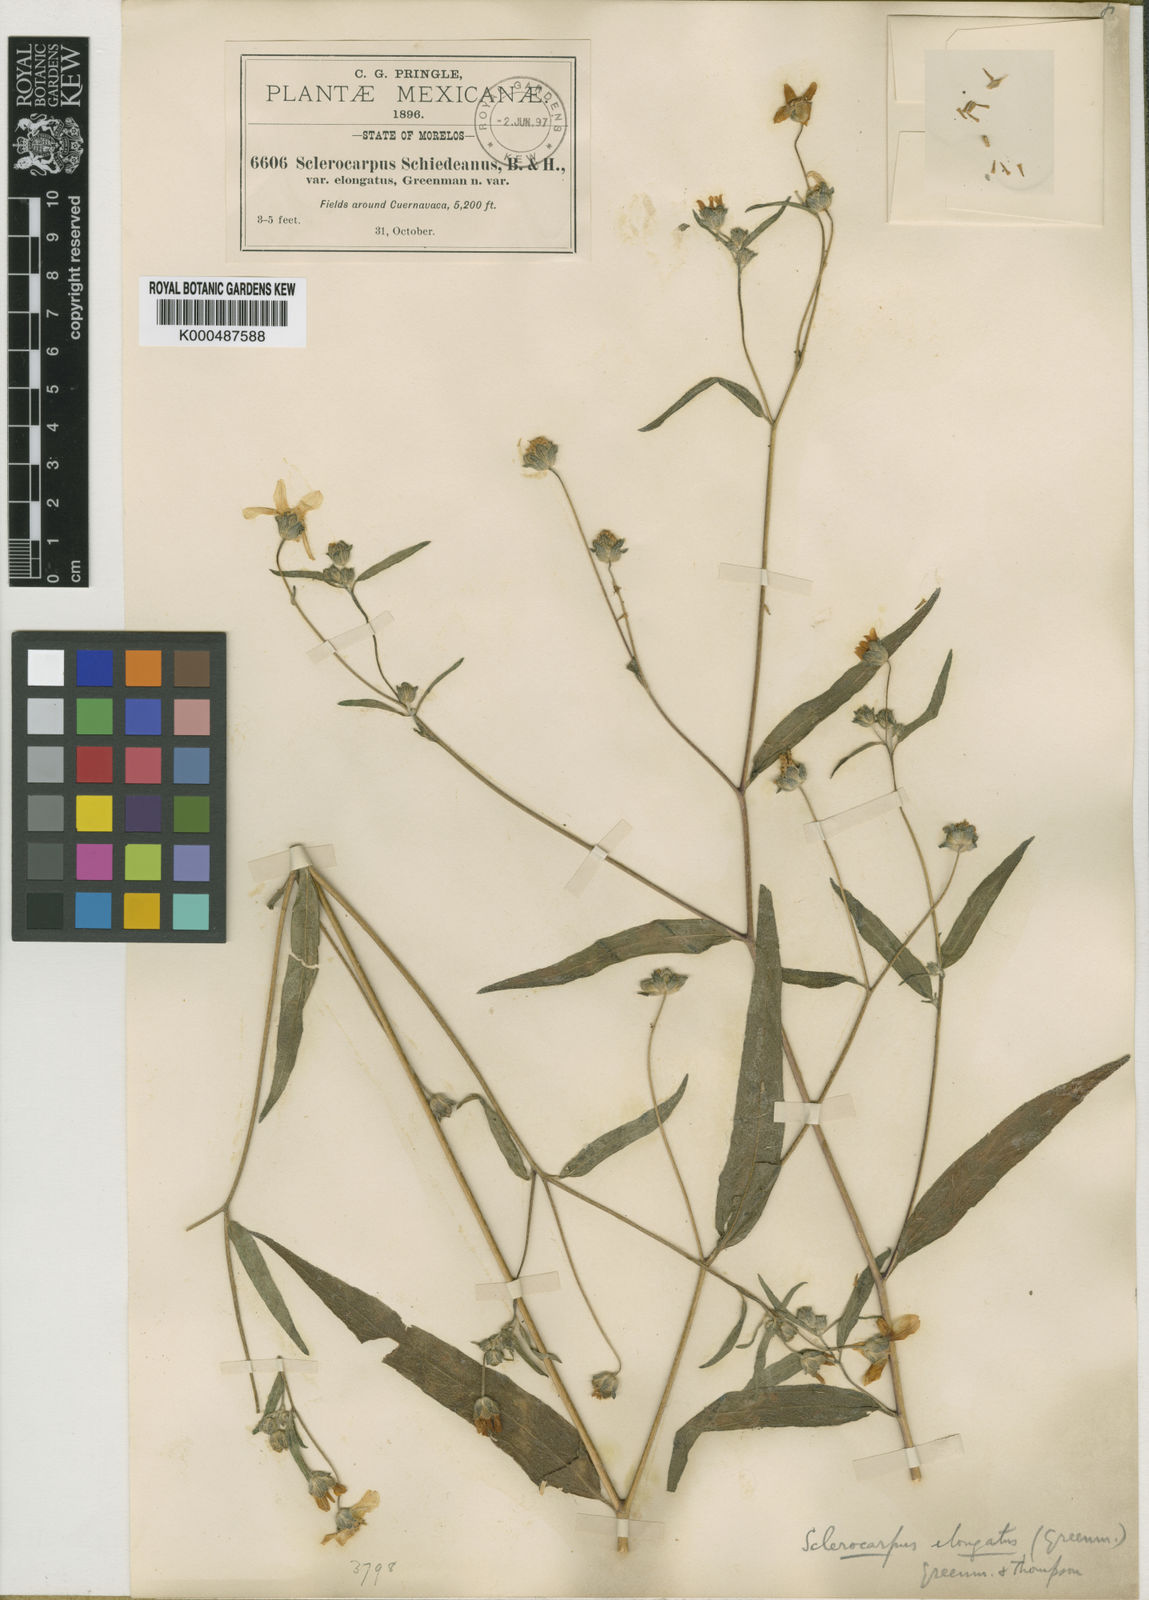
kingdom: Plantae
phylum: Tracheophyta
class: Magnoliopsida
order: Asterales
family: Asteraceae
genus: Aldama
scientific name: Aldama dentata
